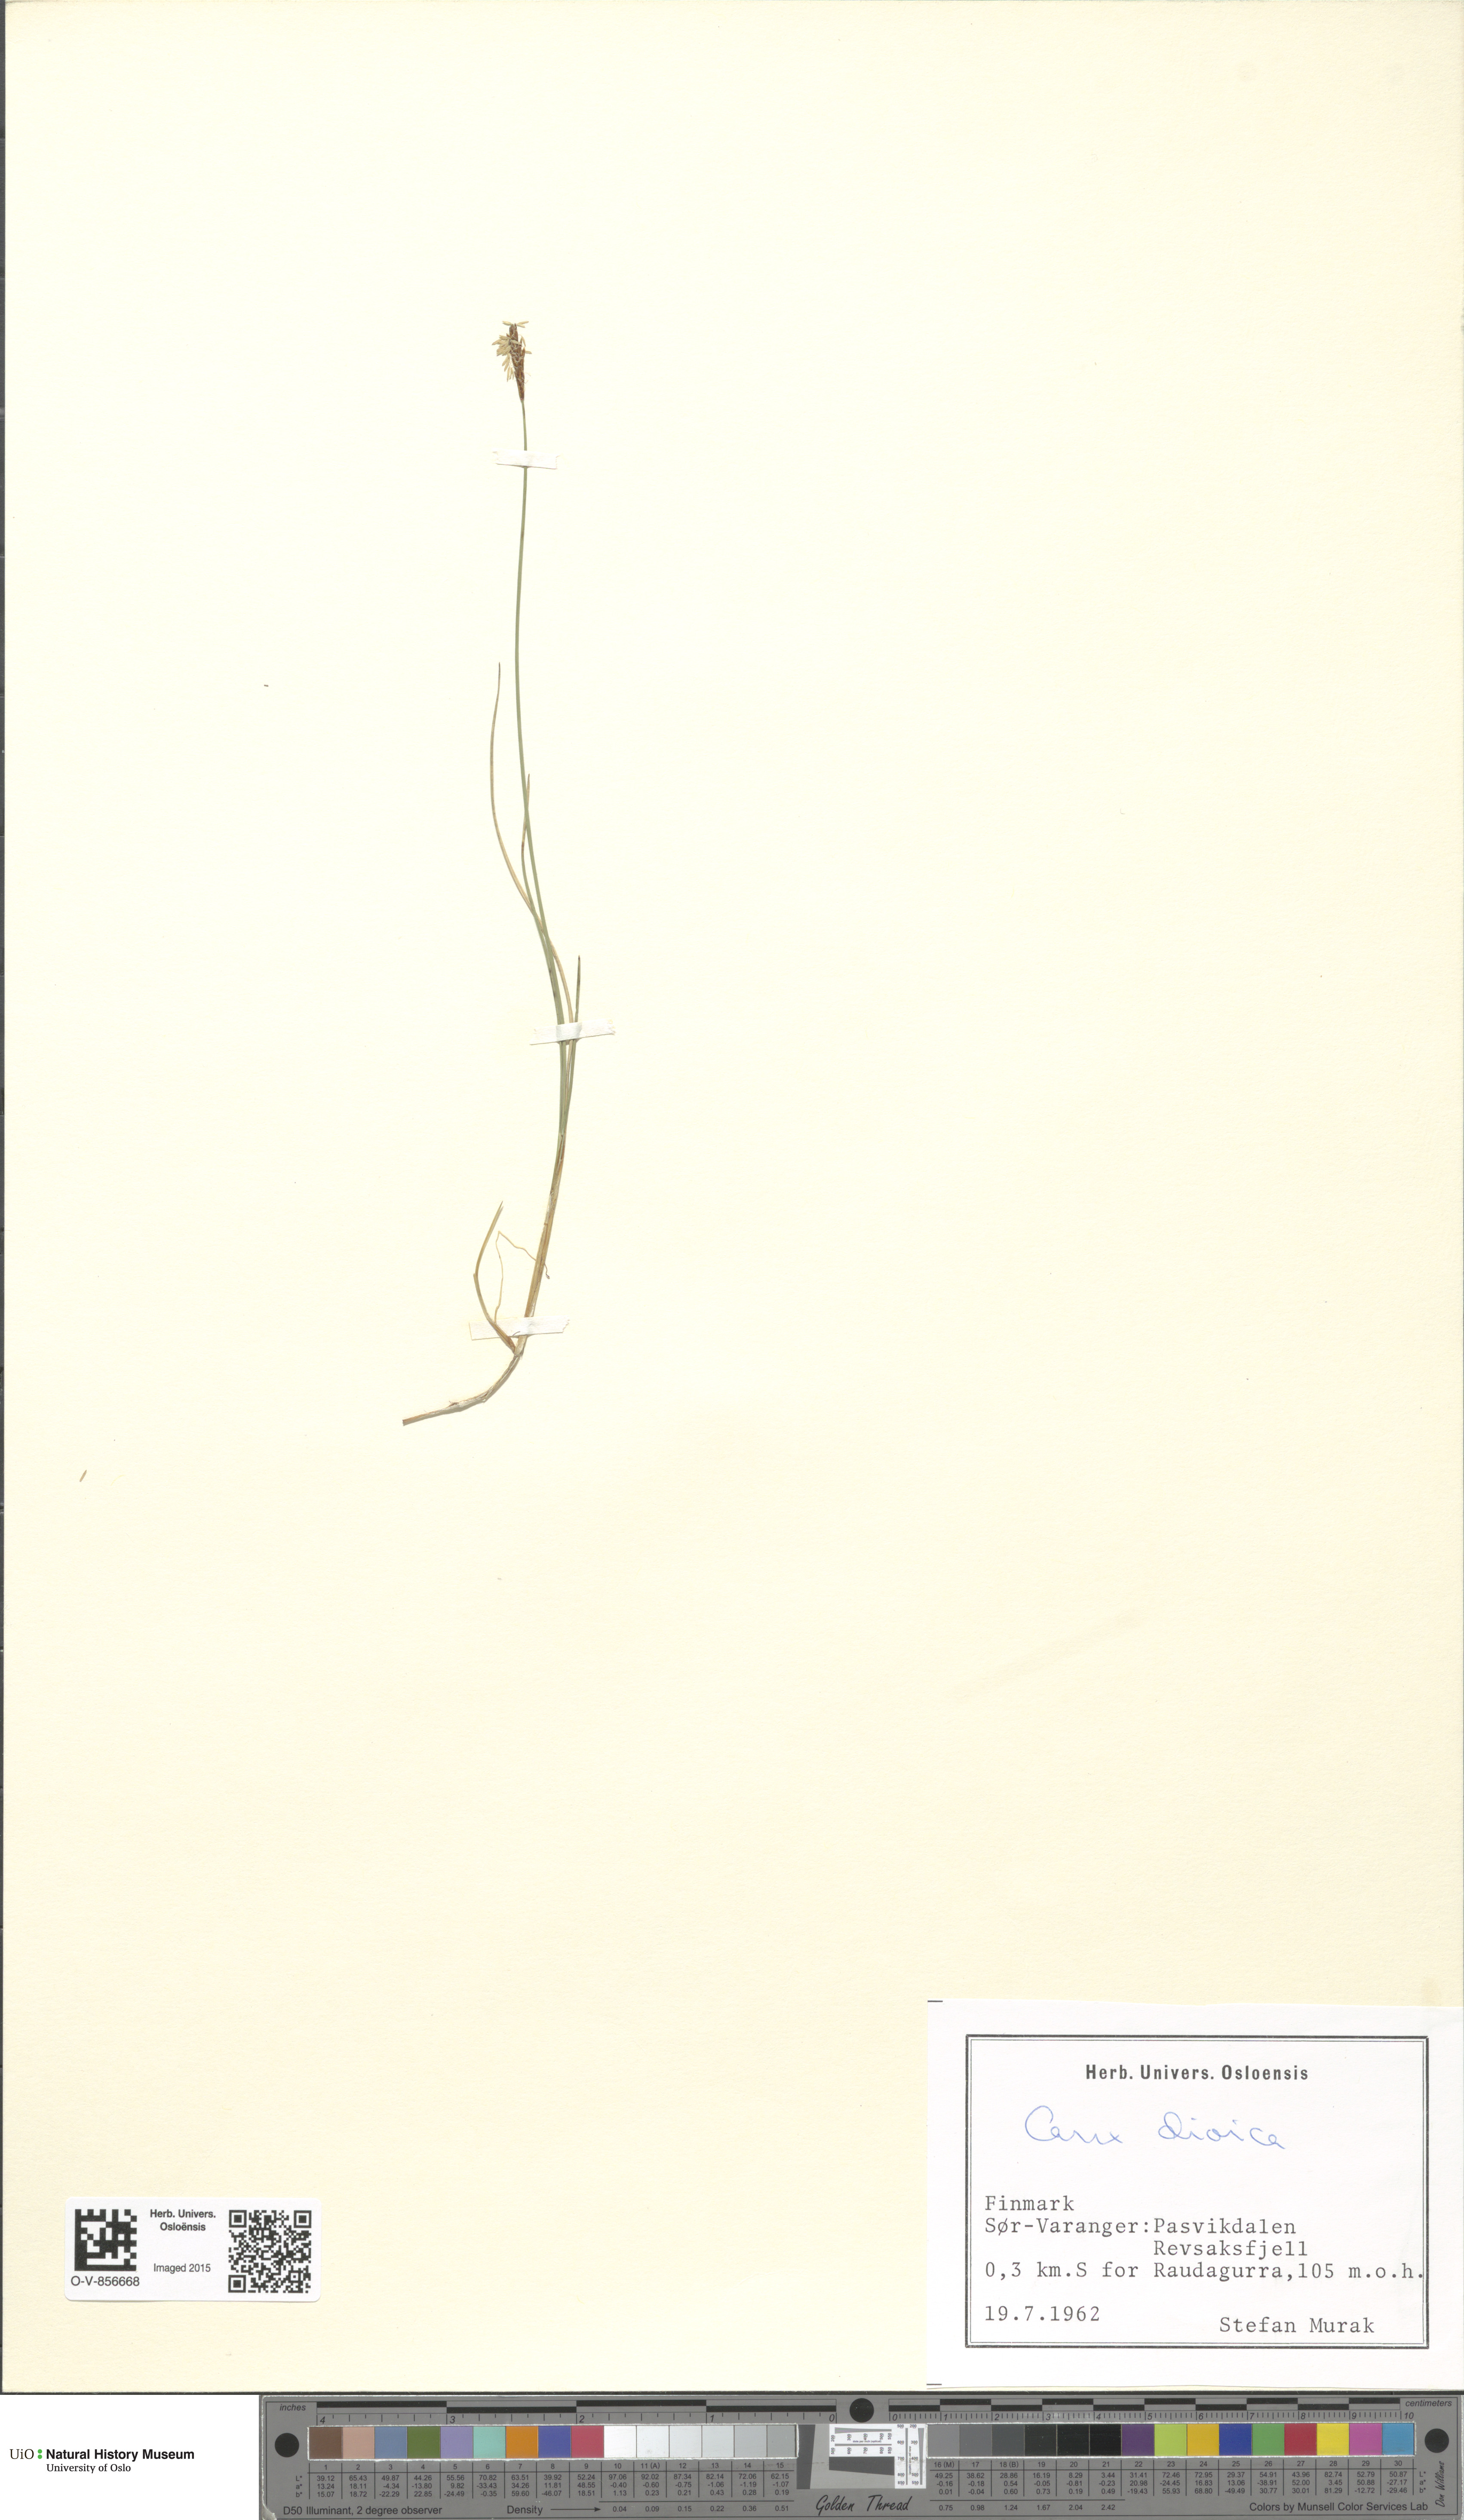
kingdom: Plantae
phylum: Tracheophyta
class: Liliopsida
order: Poales
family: Cyperaceae
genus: Carex
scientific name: Carex dioica
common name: Dioecious sedge
